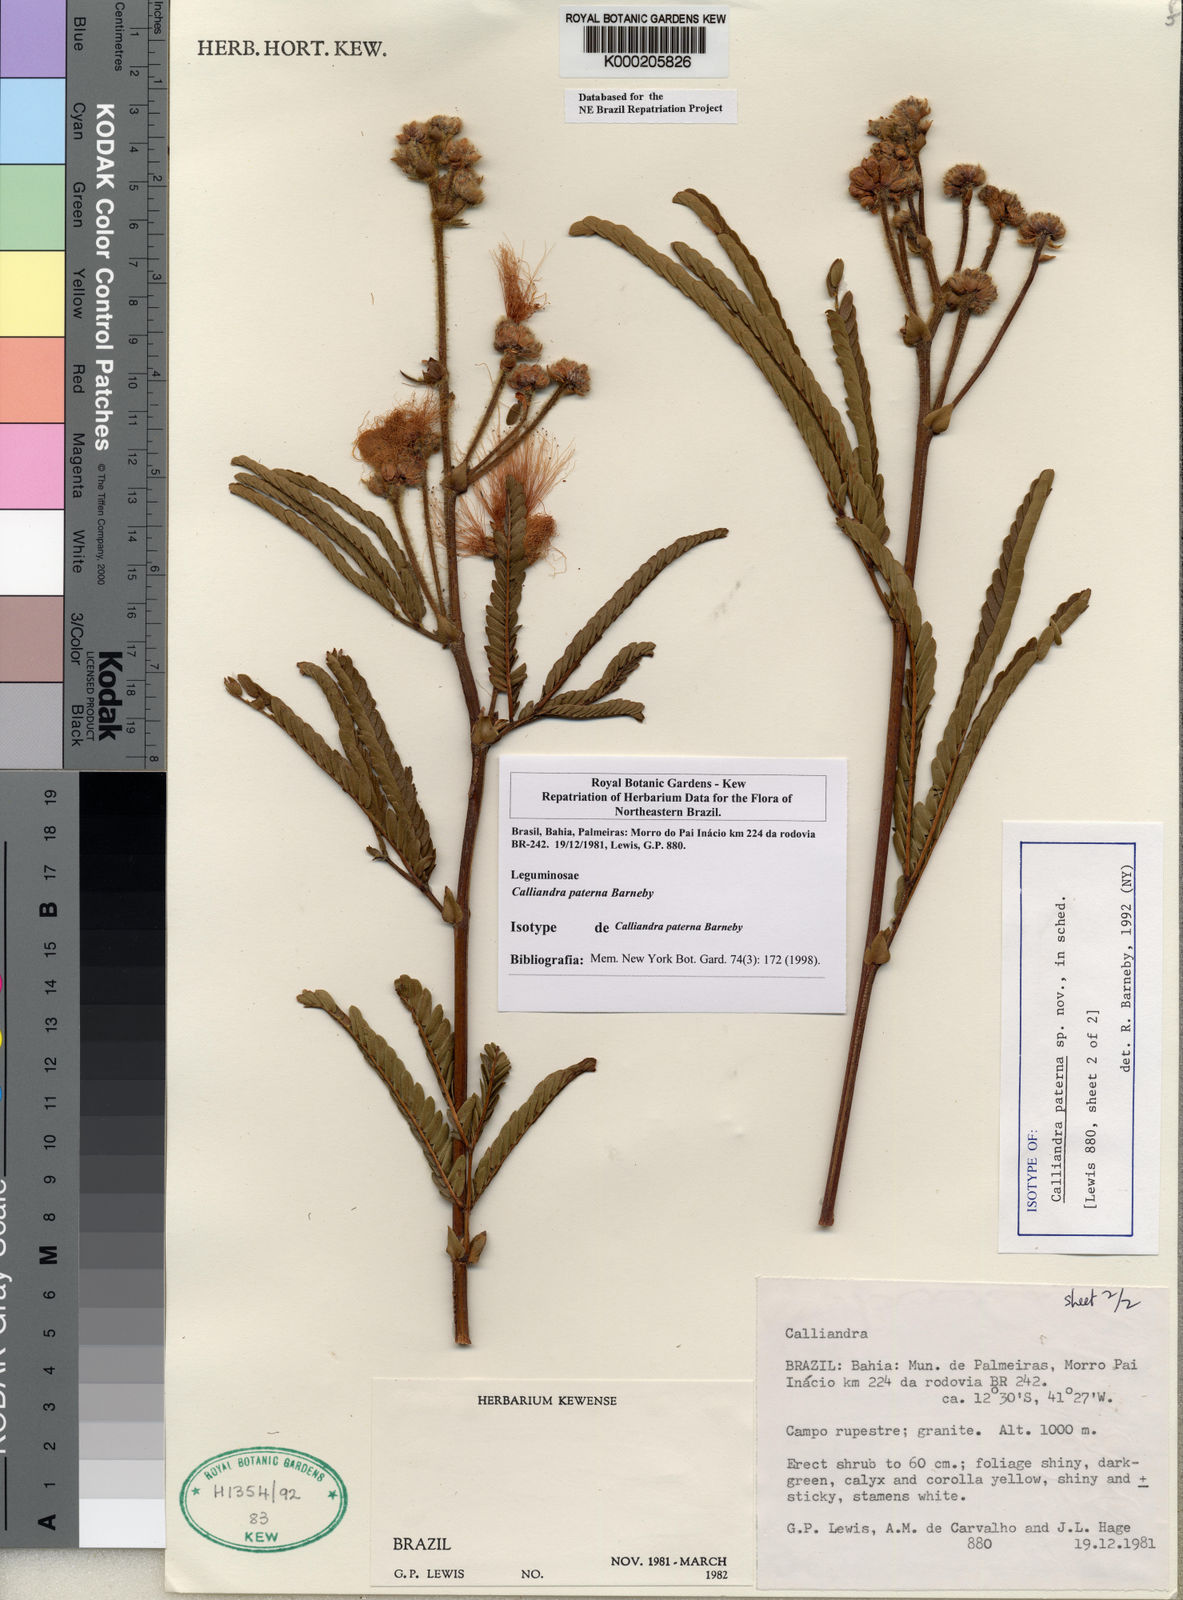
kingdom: Plantae
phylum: Tracheophyta
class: Magnoliopsida
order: Fabales
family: Fabaceae
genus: Calliandra
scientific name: Calliandra paterna
